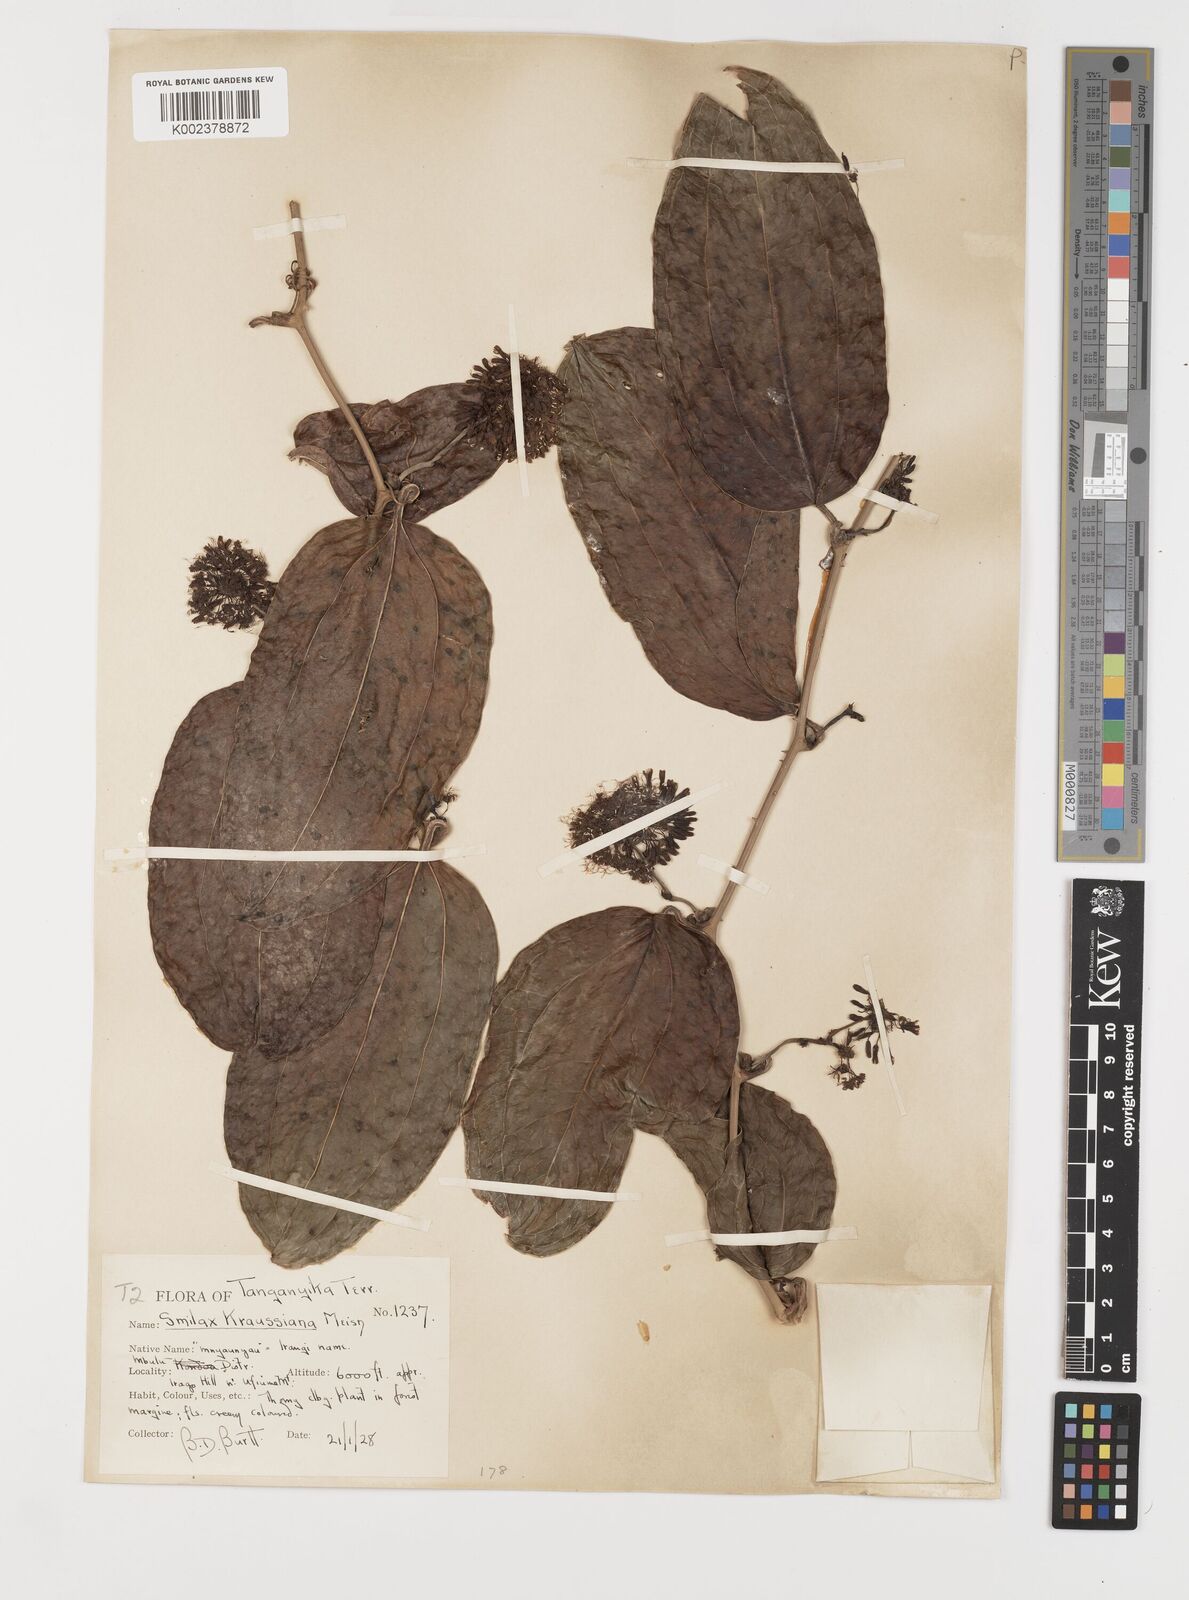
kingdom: Plantae
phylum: Tracheophyta
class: Liliopsida
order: Liliales
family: Smilacaceae
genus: Smilax
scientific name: Smilax anceps
